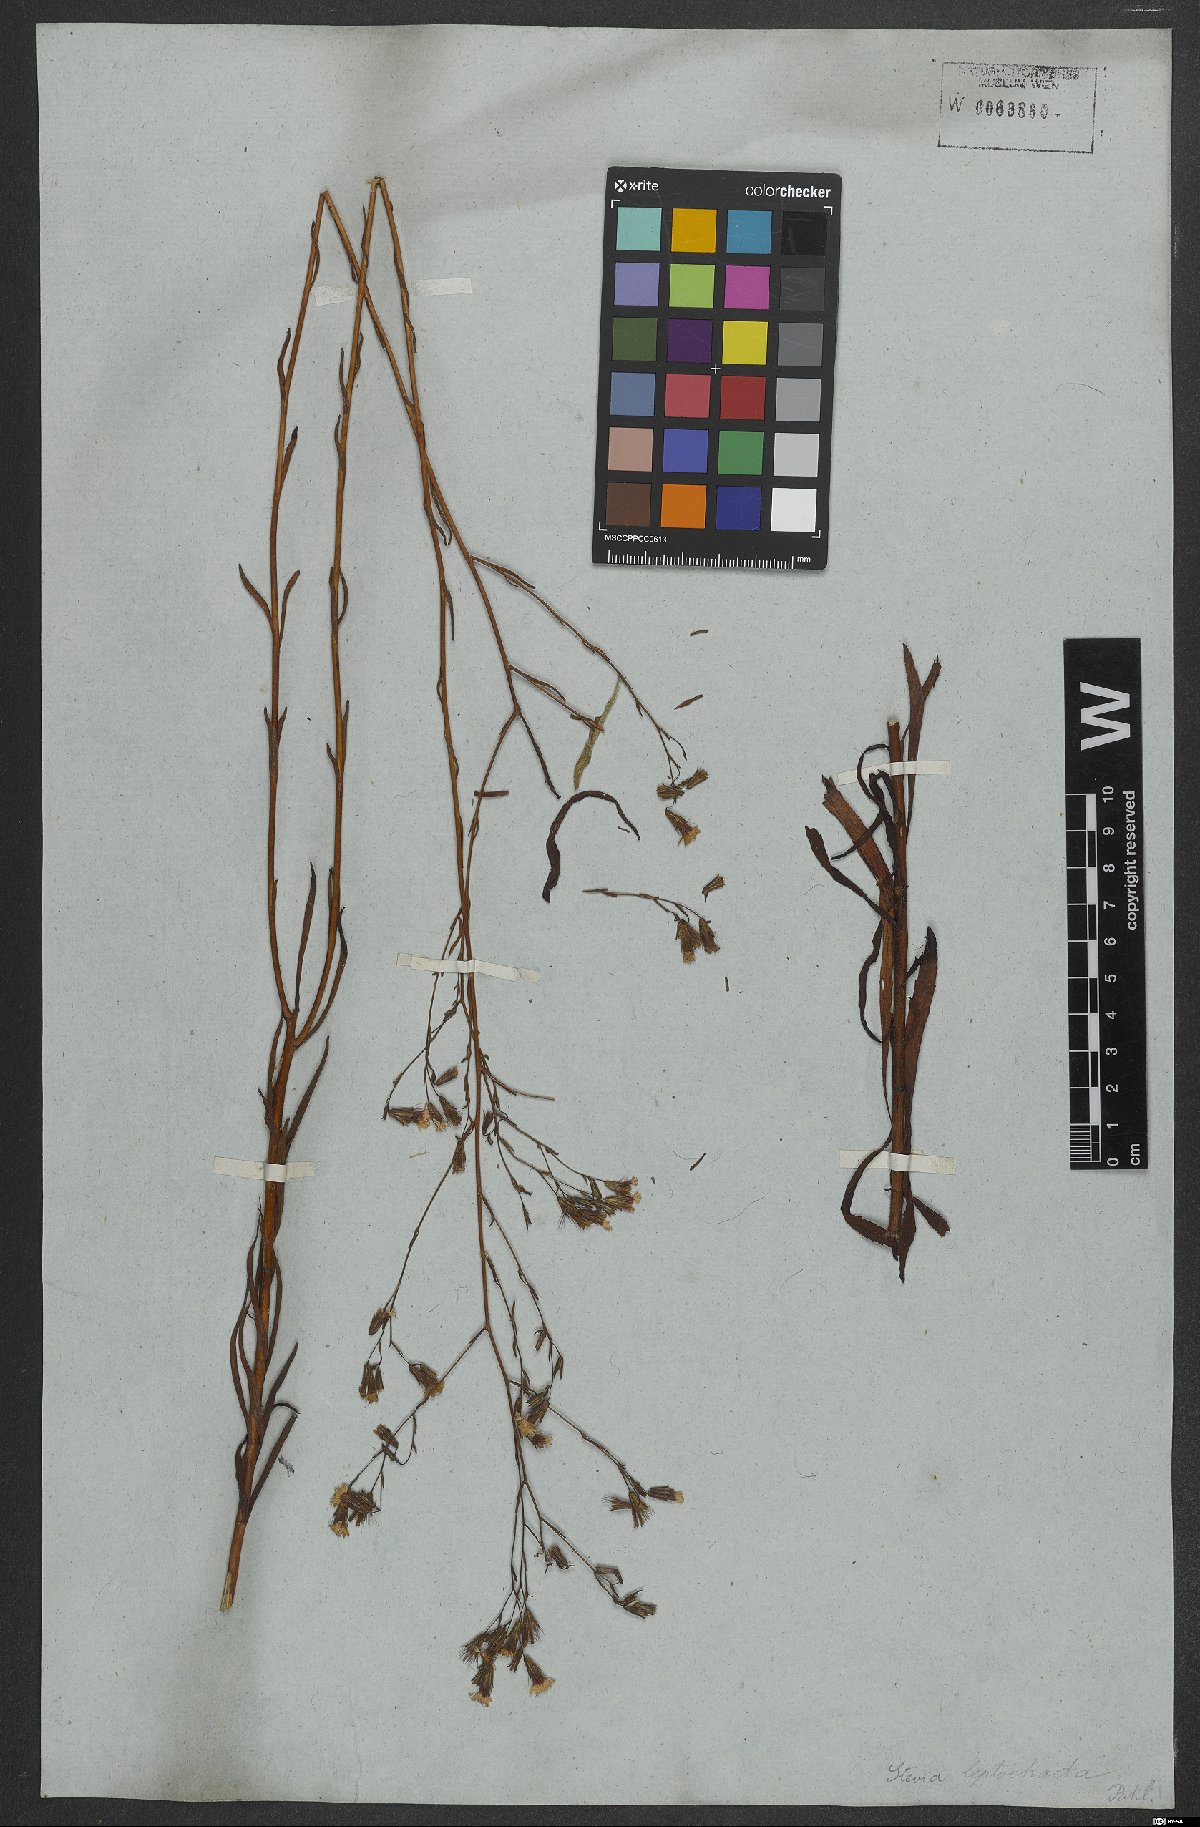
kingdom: Plantae
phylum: Tracheophyta
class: Magnoliopsida
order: Asterales
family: Asteraceae
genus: Stevia
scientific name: Stevia heptachaeta
